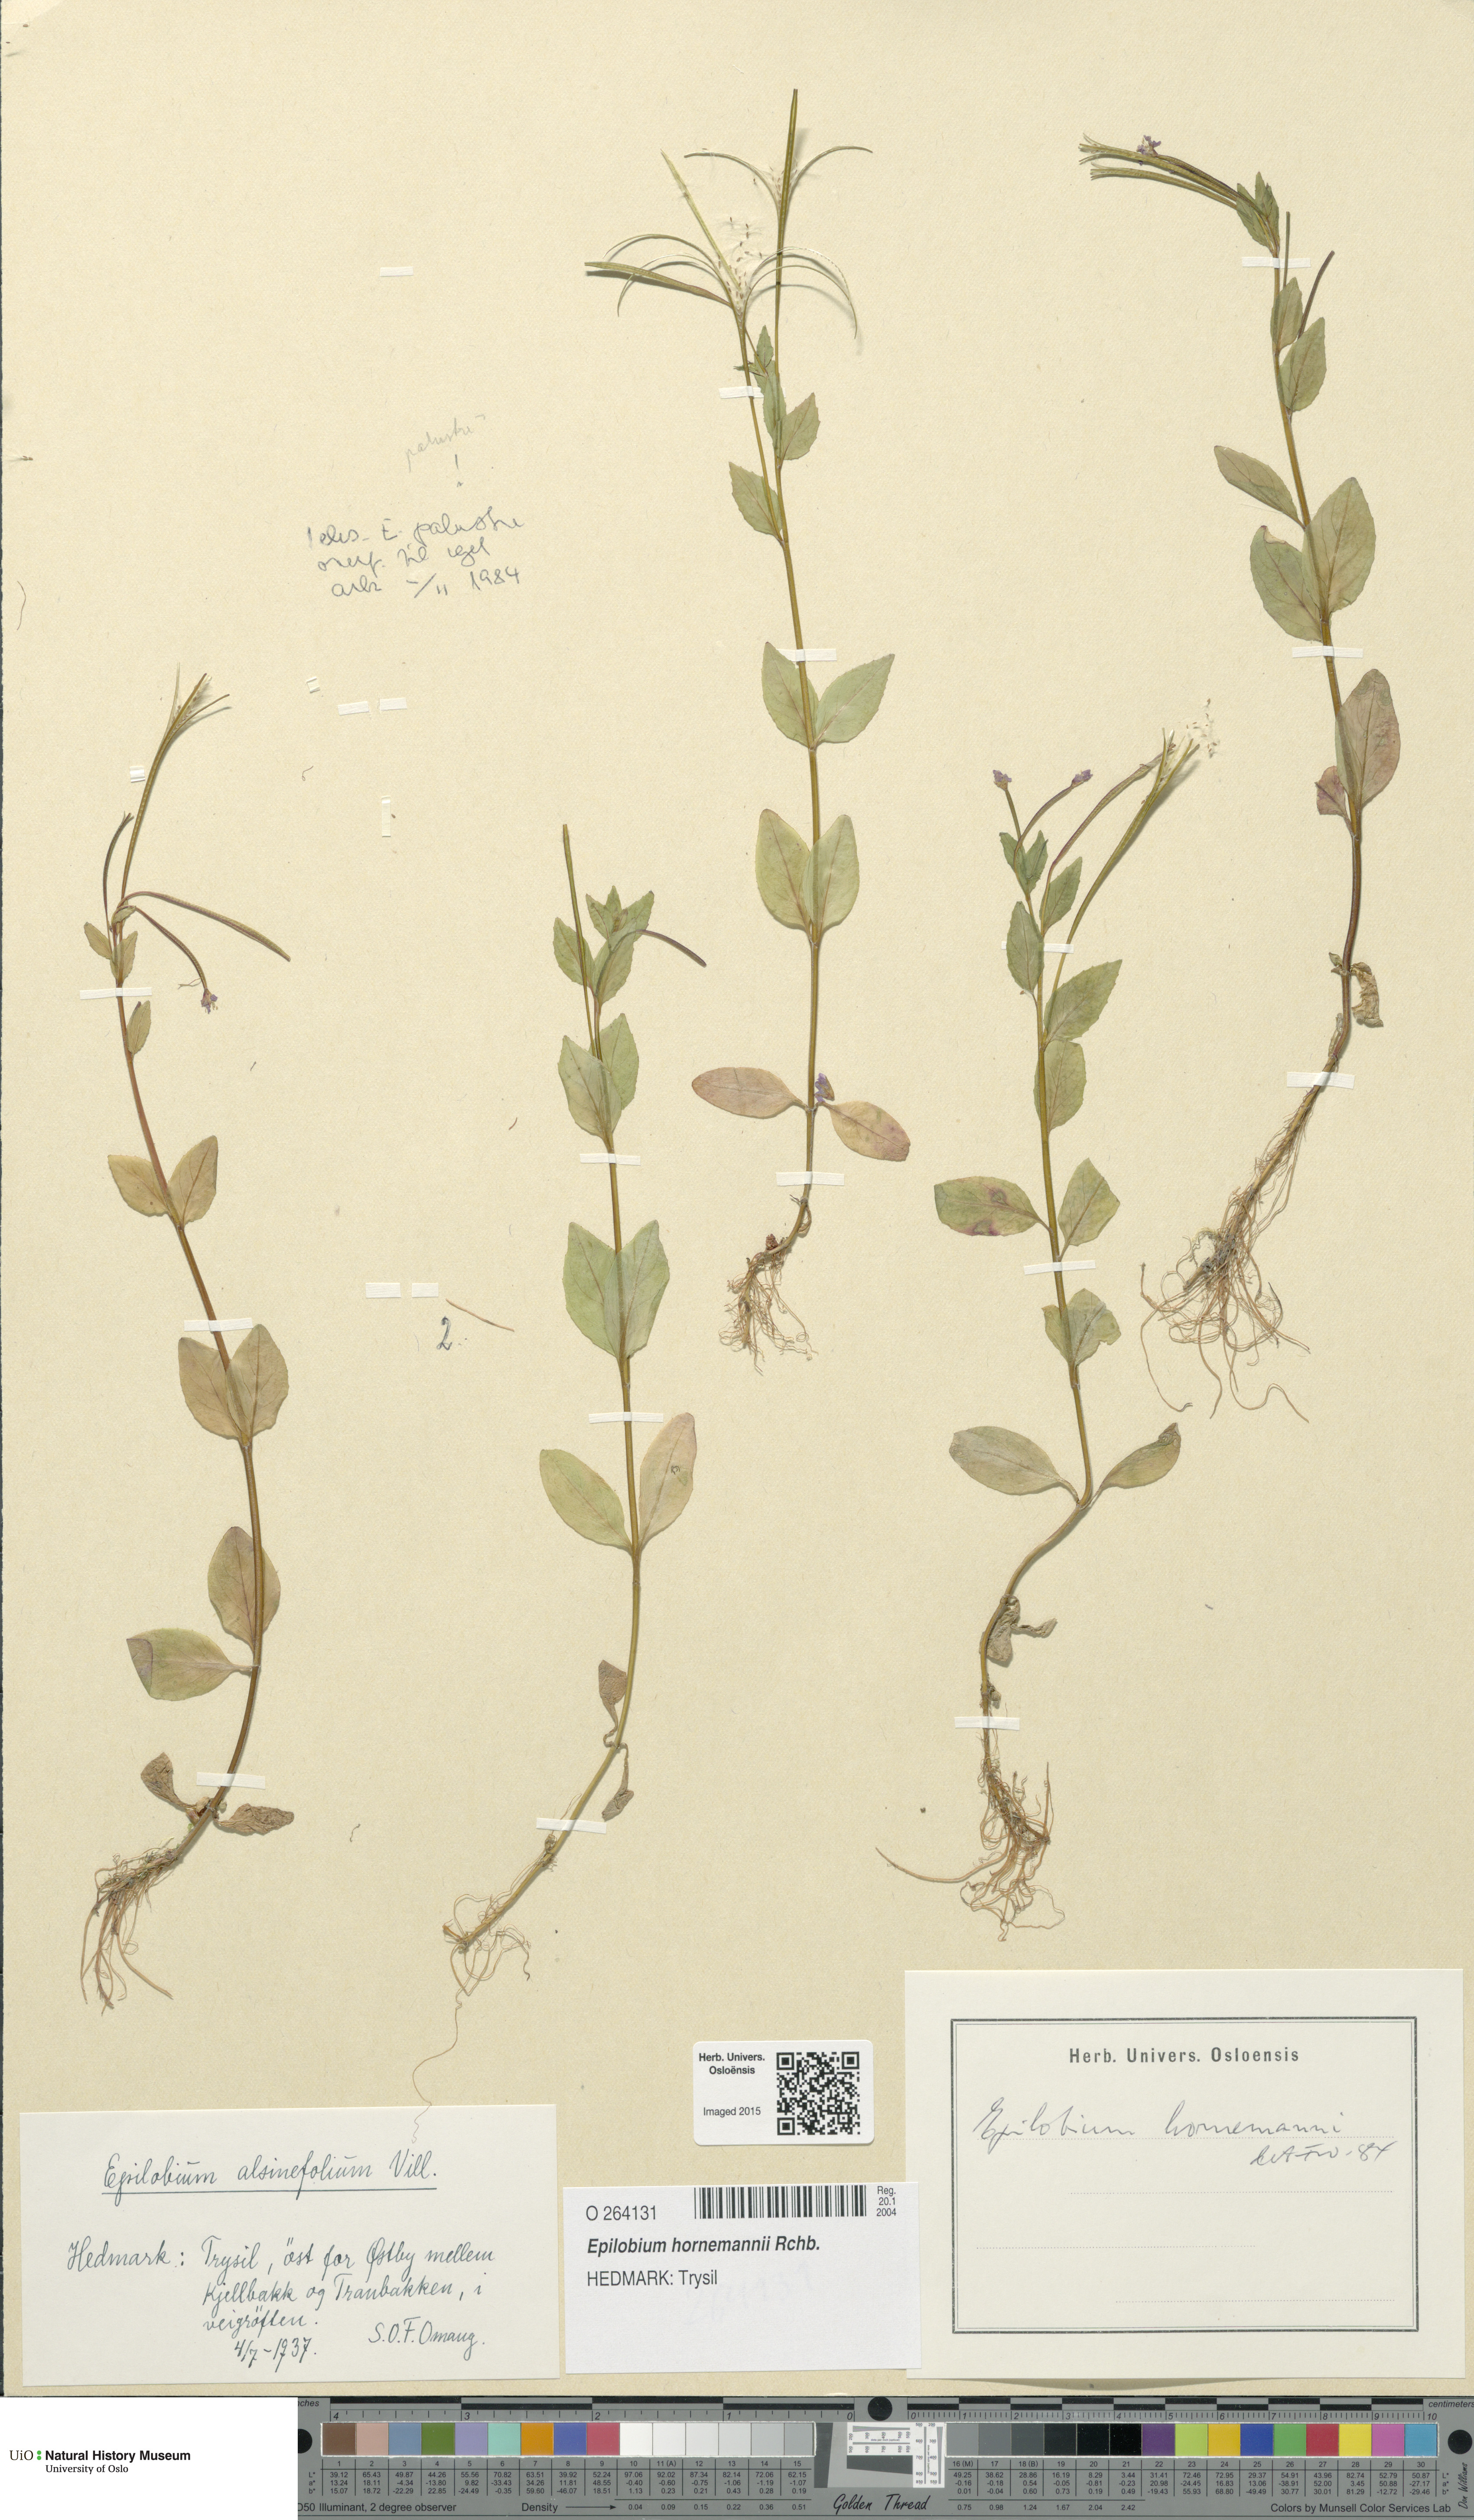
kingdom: Plantae
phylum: Tracheophyta
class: Magnoliopsida
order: Myrtales
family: Onagraceae
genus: Epilobium
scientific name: Epilobium hornemannii
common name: Hornemann's willowherb
